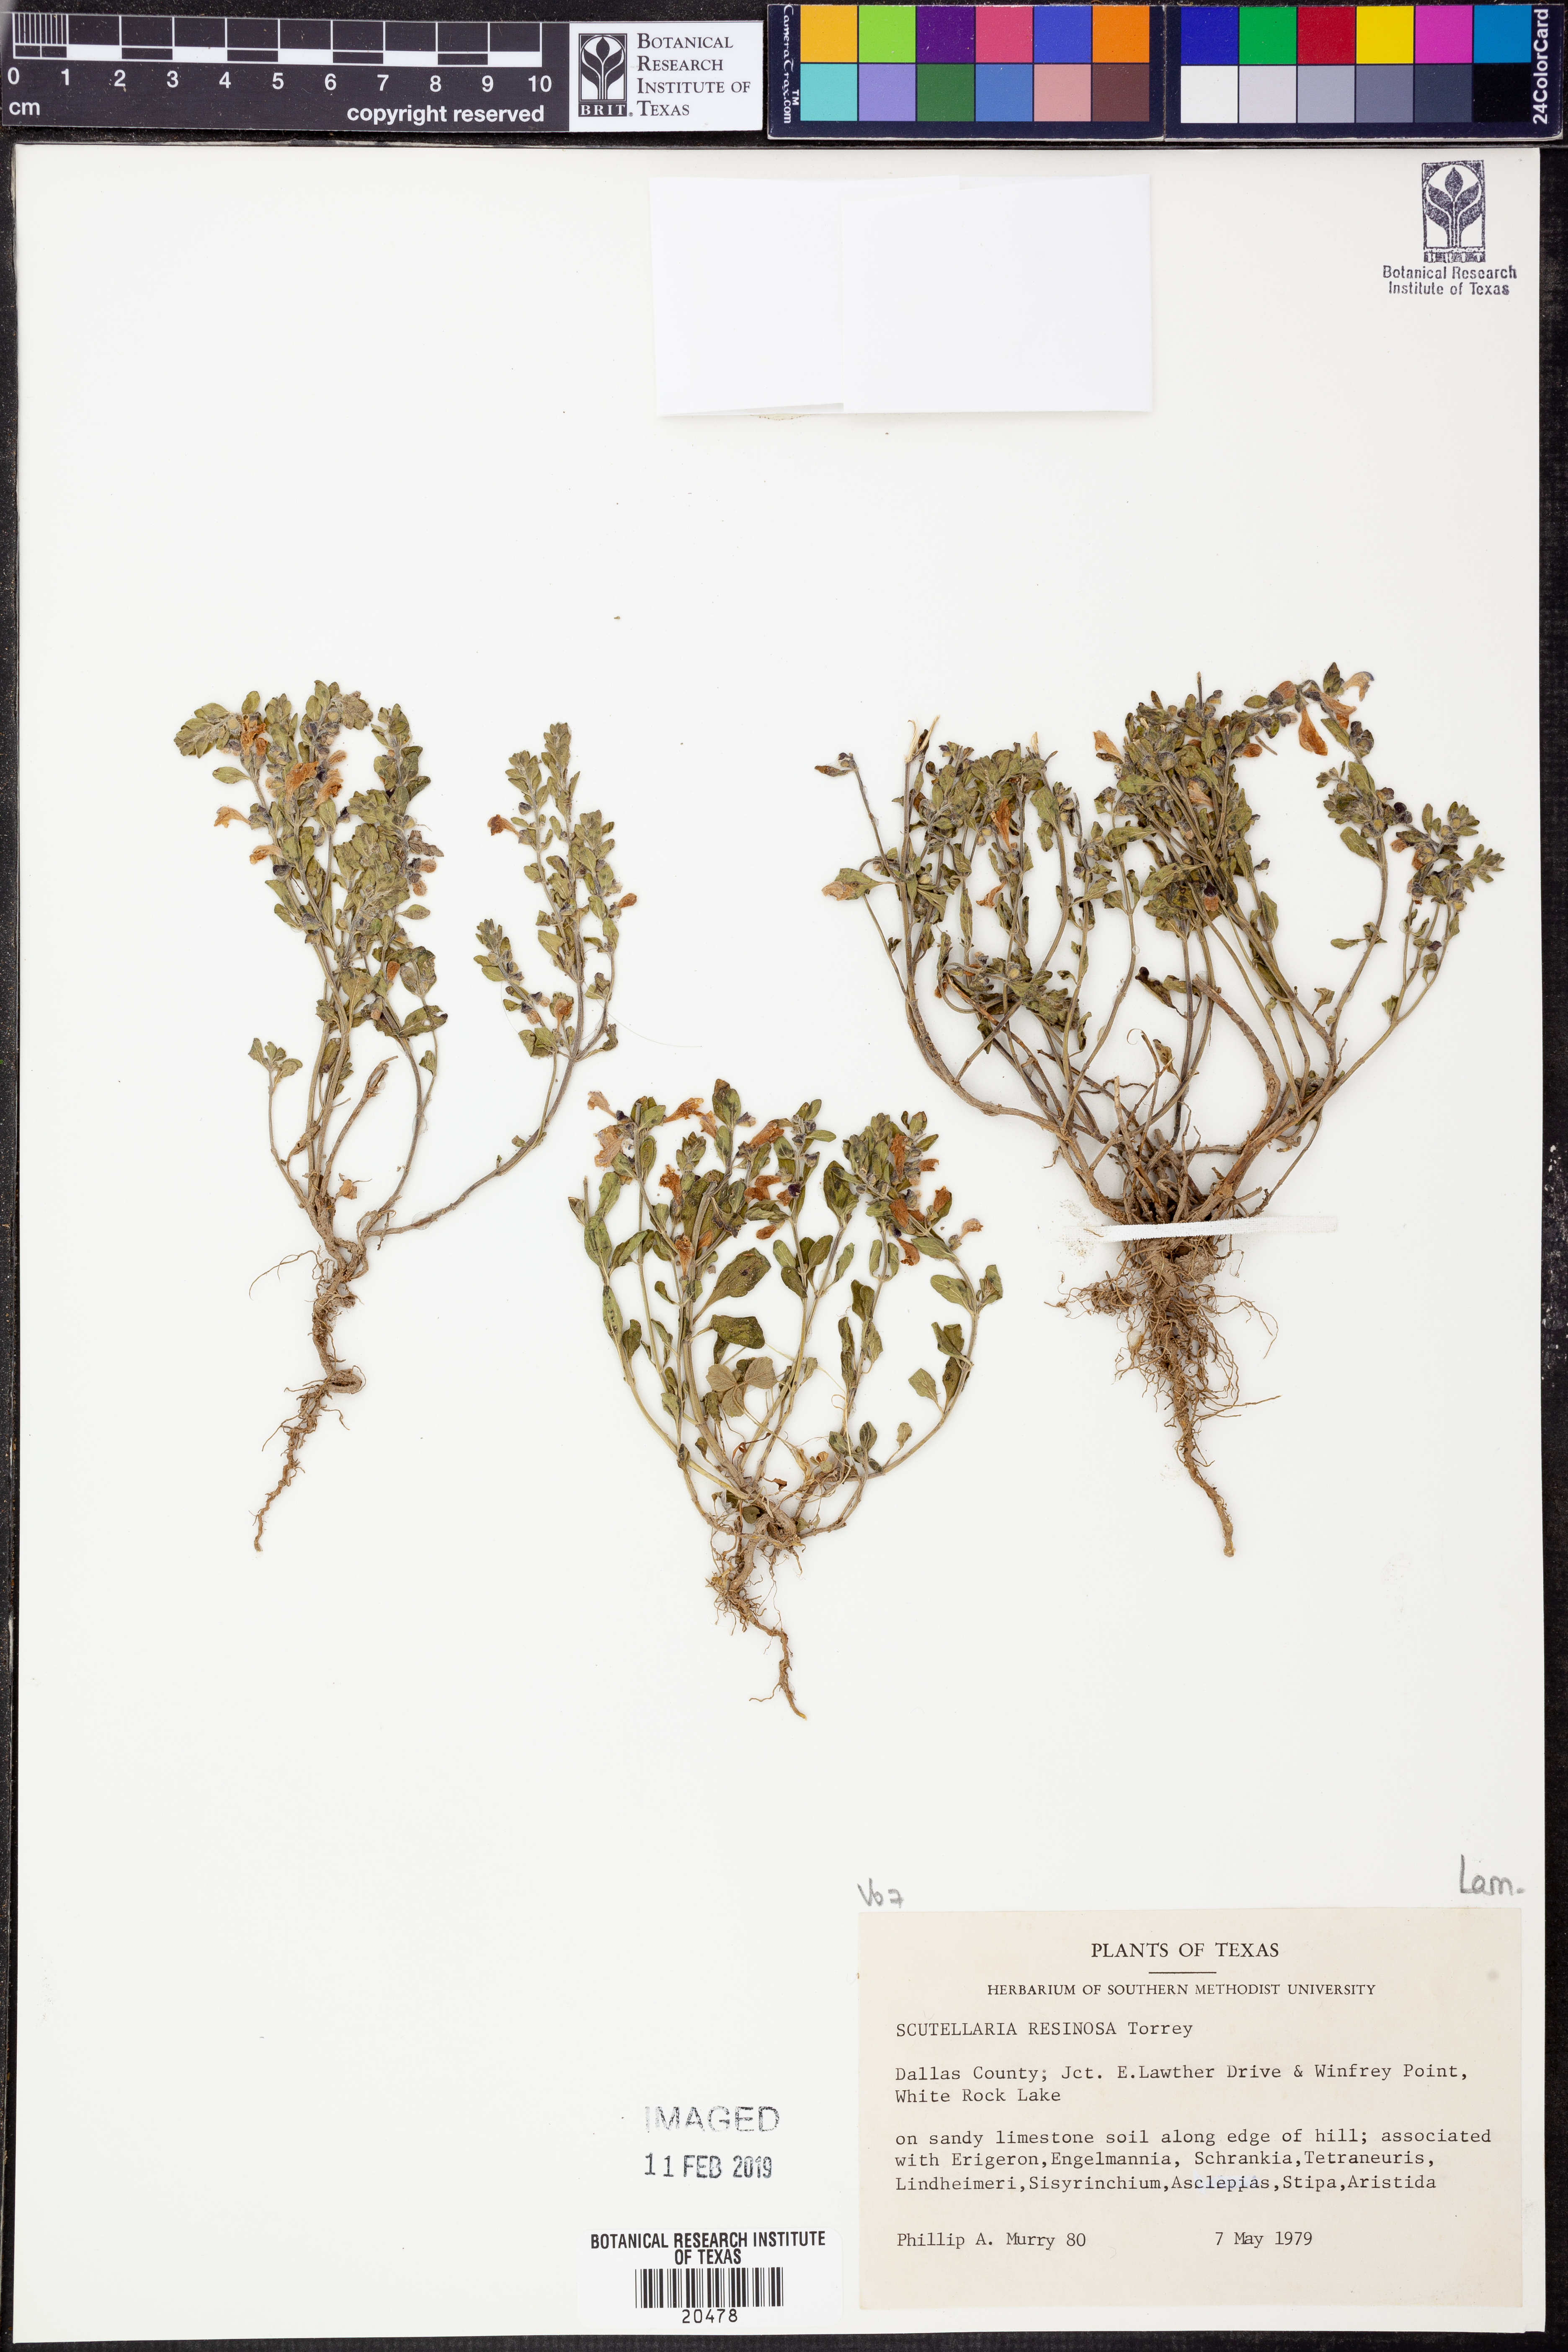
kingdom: Plantae
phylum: Tracheophyta
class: Magnoliopsida
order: Lamiales
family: Lamiaceae
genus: Scutellaria
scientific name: Scutellaria resinosa
